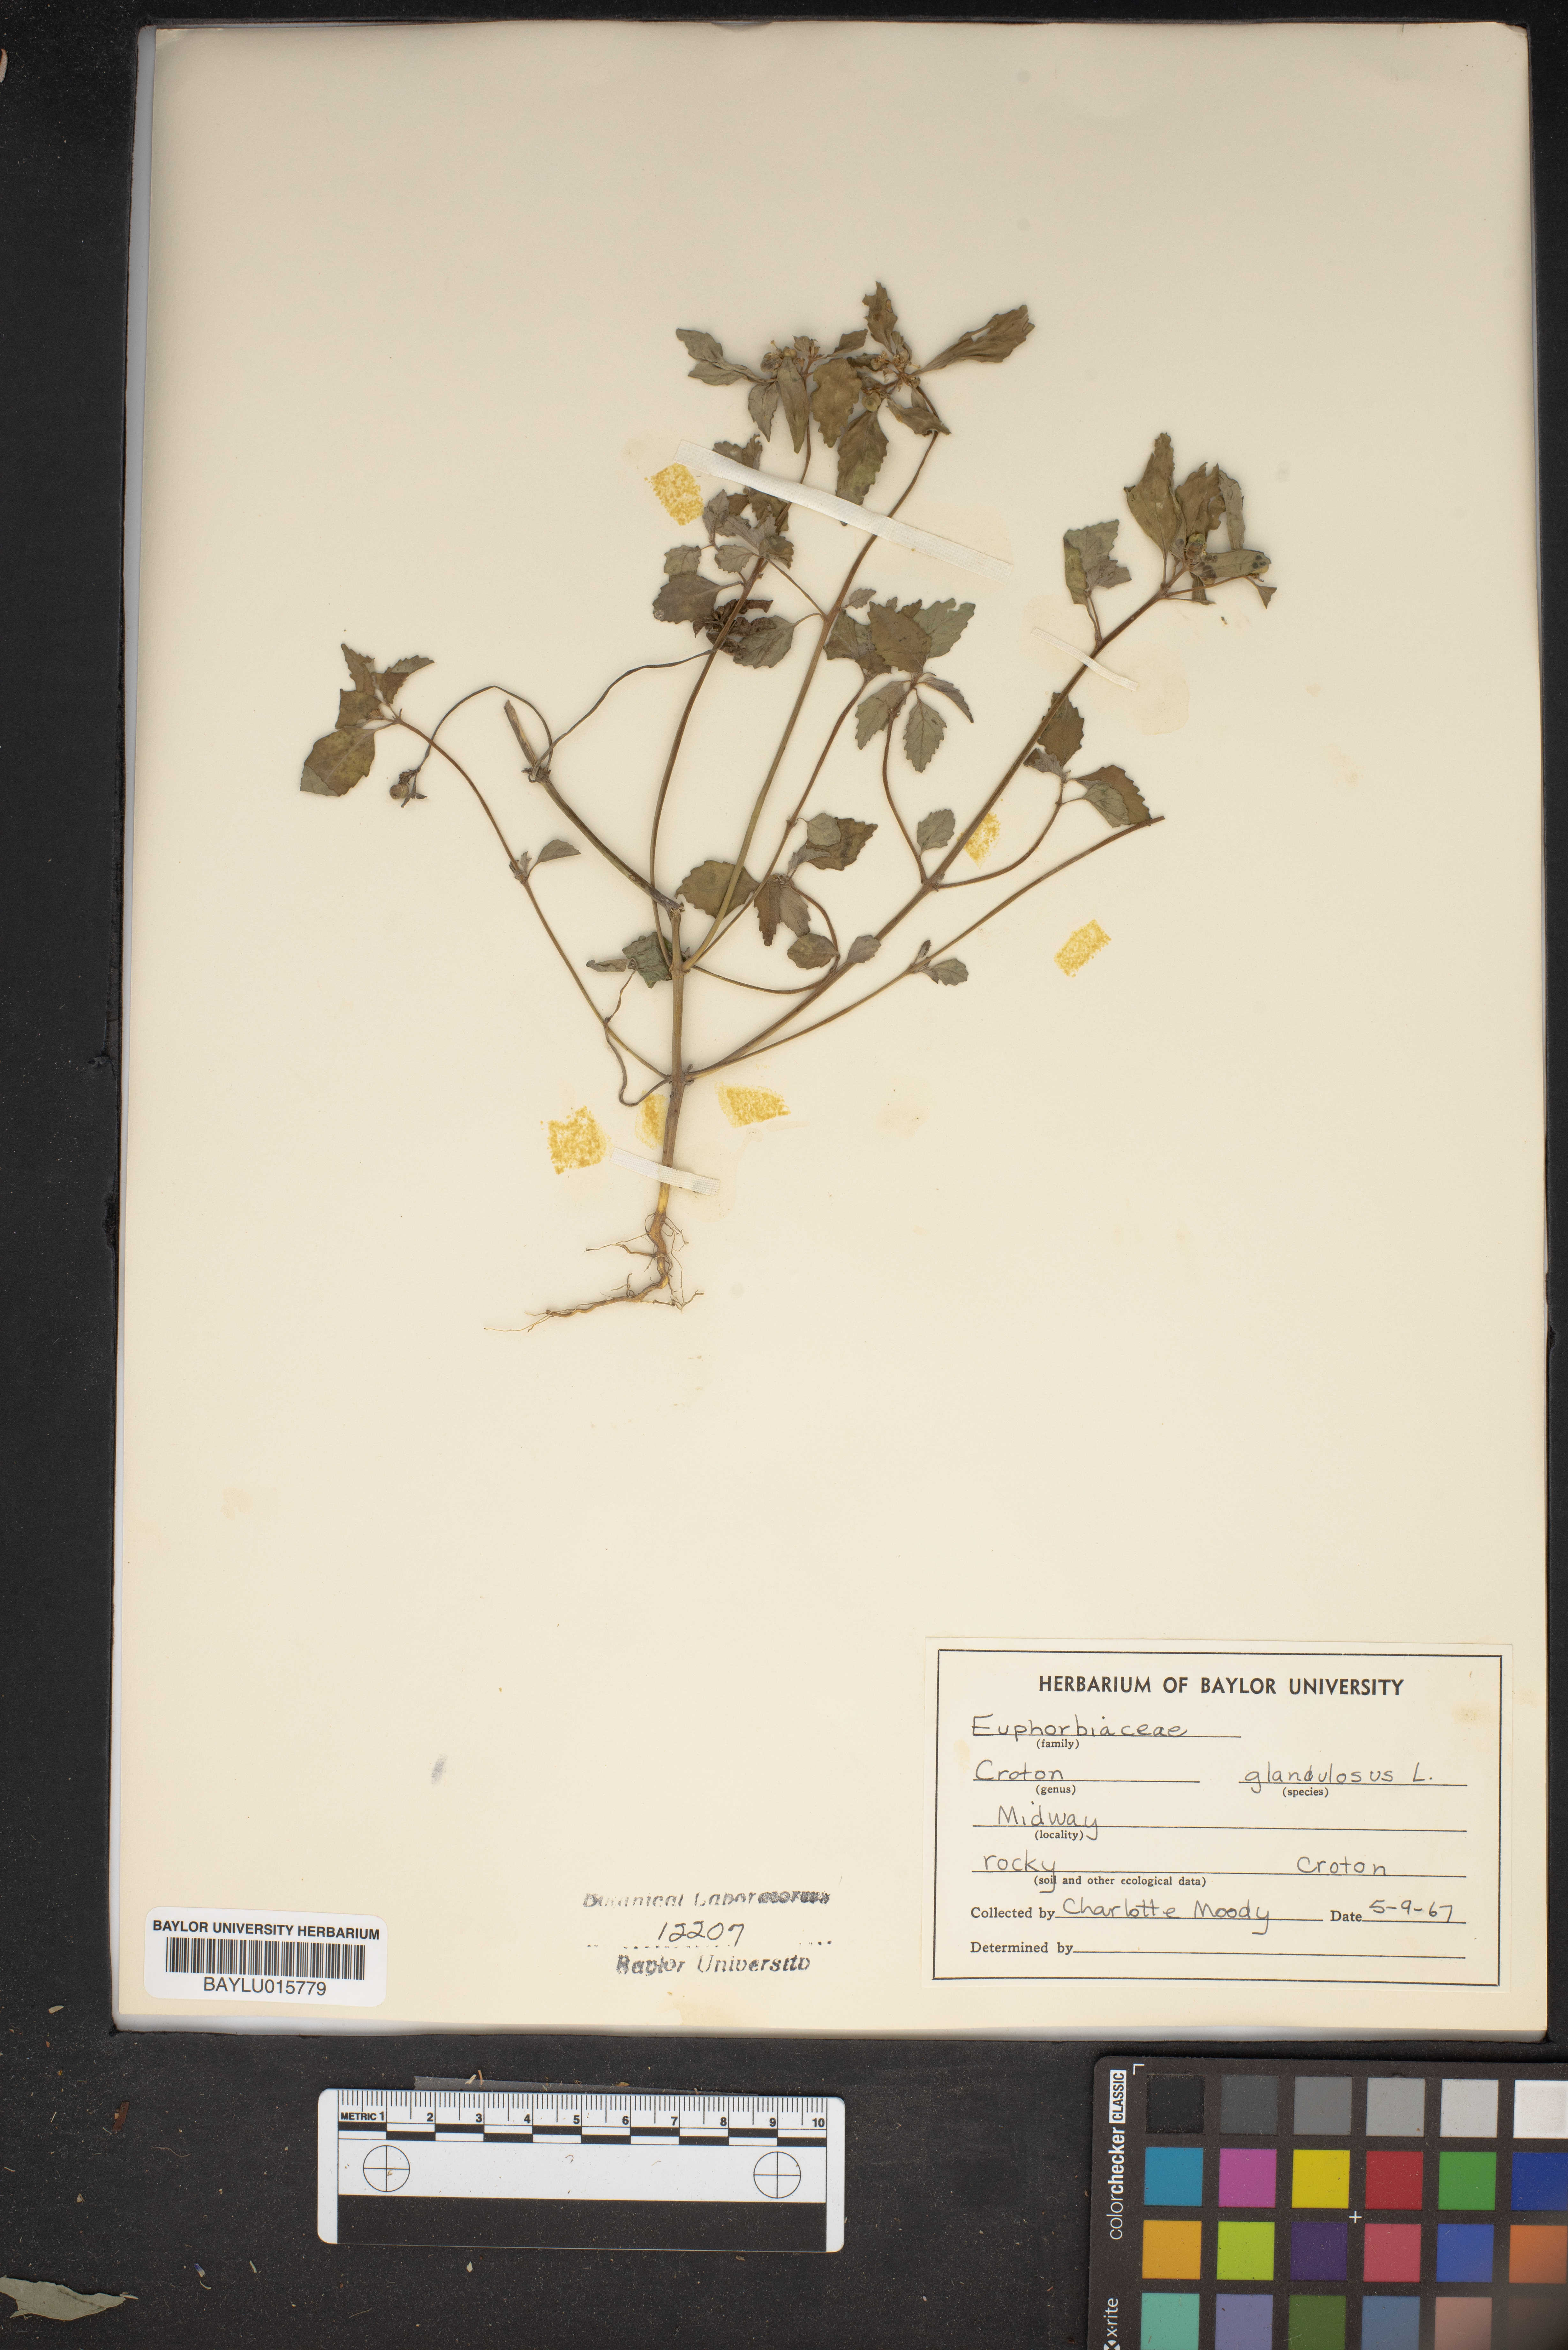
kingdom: Plantae
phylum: Tracheophyta
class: Magnoliopsida
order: Malpighiales
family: Euphorbiaceae
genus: Croton
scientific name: Croton glandulosus
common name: Tropic croton
